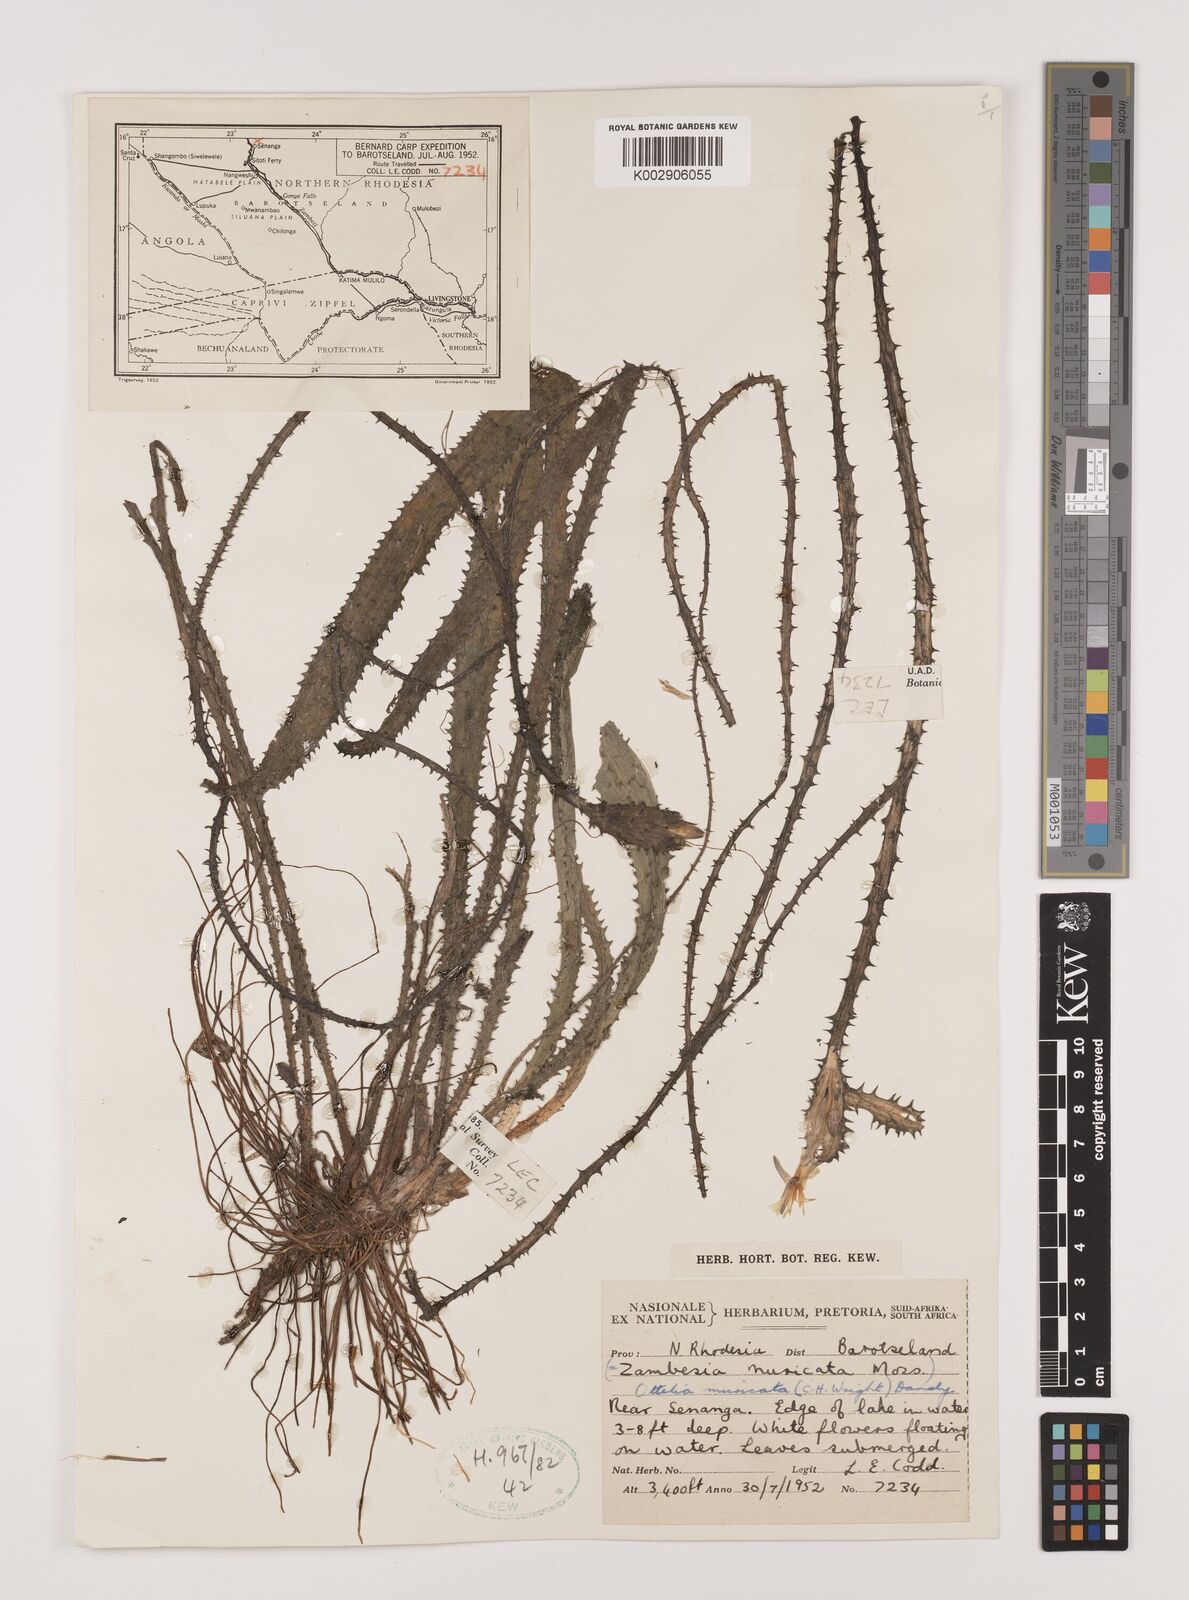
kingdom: Plantae
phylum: Tracheophyta
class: Liliopsida
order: Alismatales
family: Hydrocharitaceae
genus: Ottelia
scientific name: Ottelia muricata
